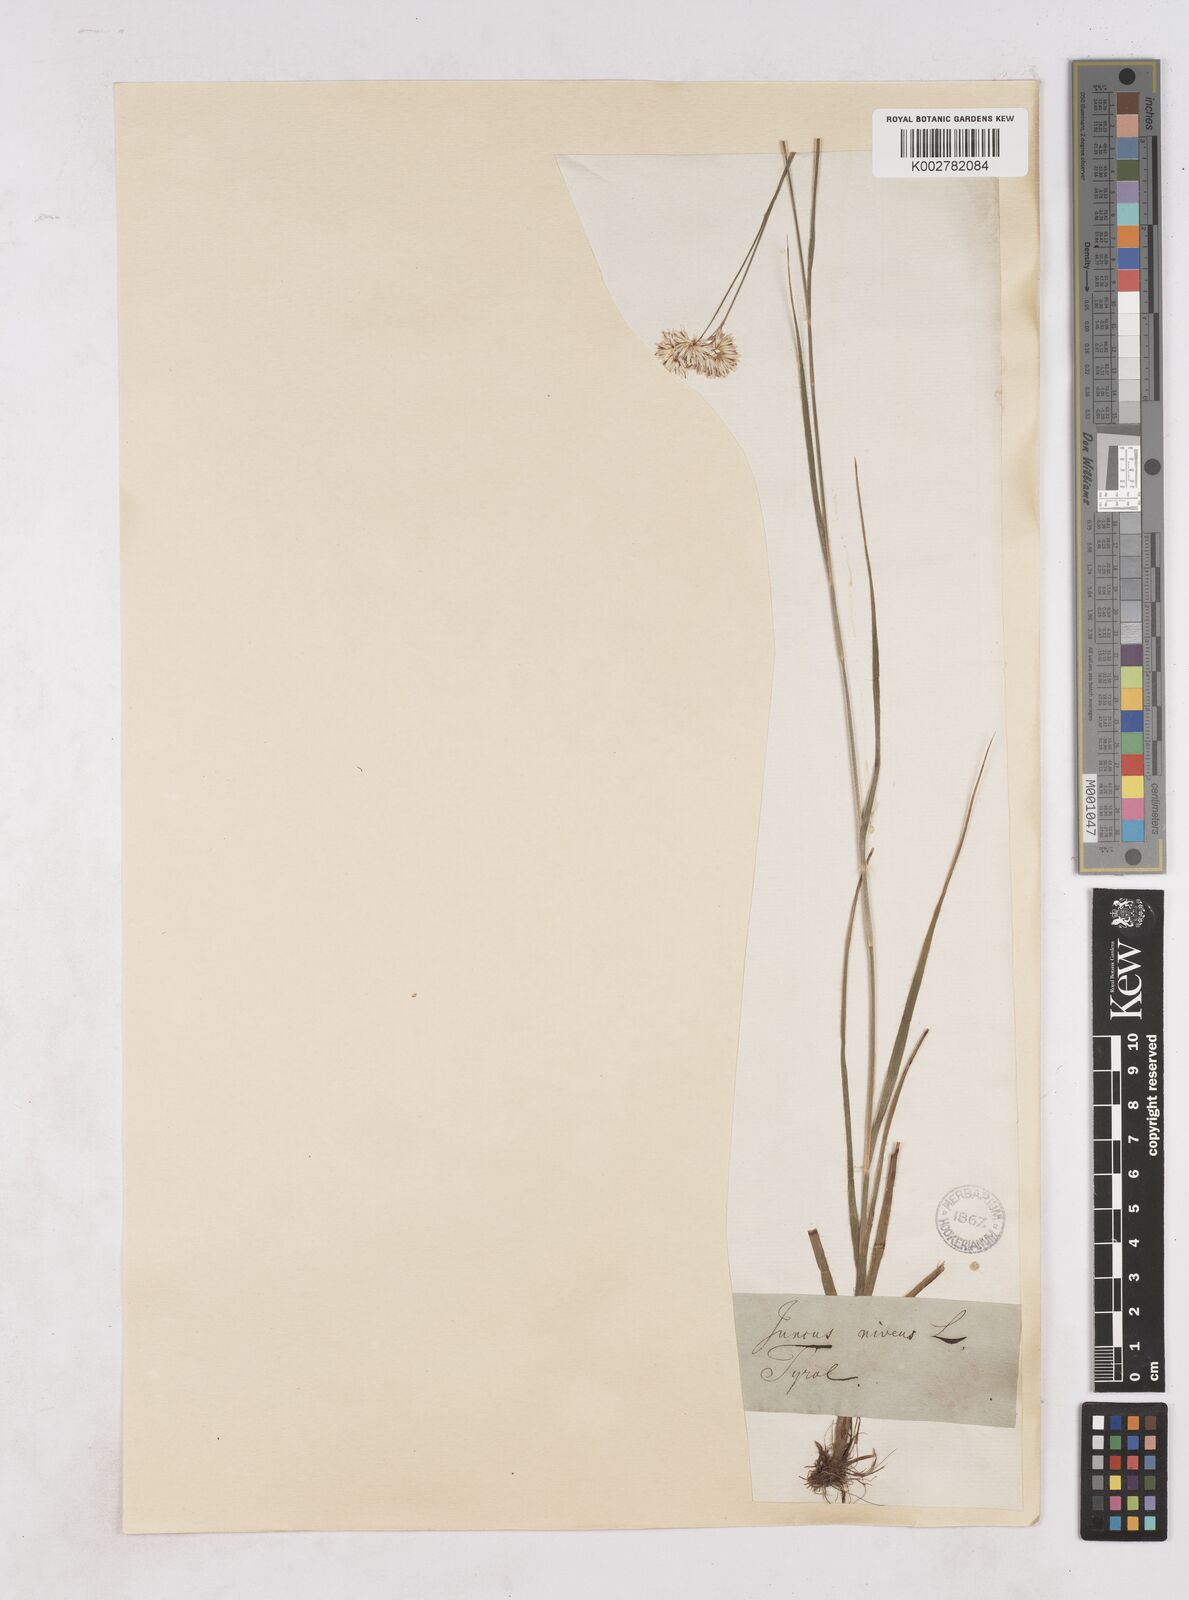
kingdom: Plantae
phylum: Tracheophyta
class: Liliopsida
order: Poales
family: Juncaceae
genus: Luzula
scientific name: Luzula nivea
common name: Snow-white wood-rush
